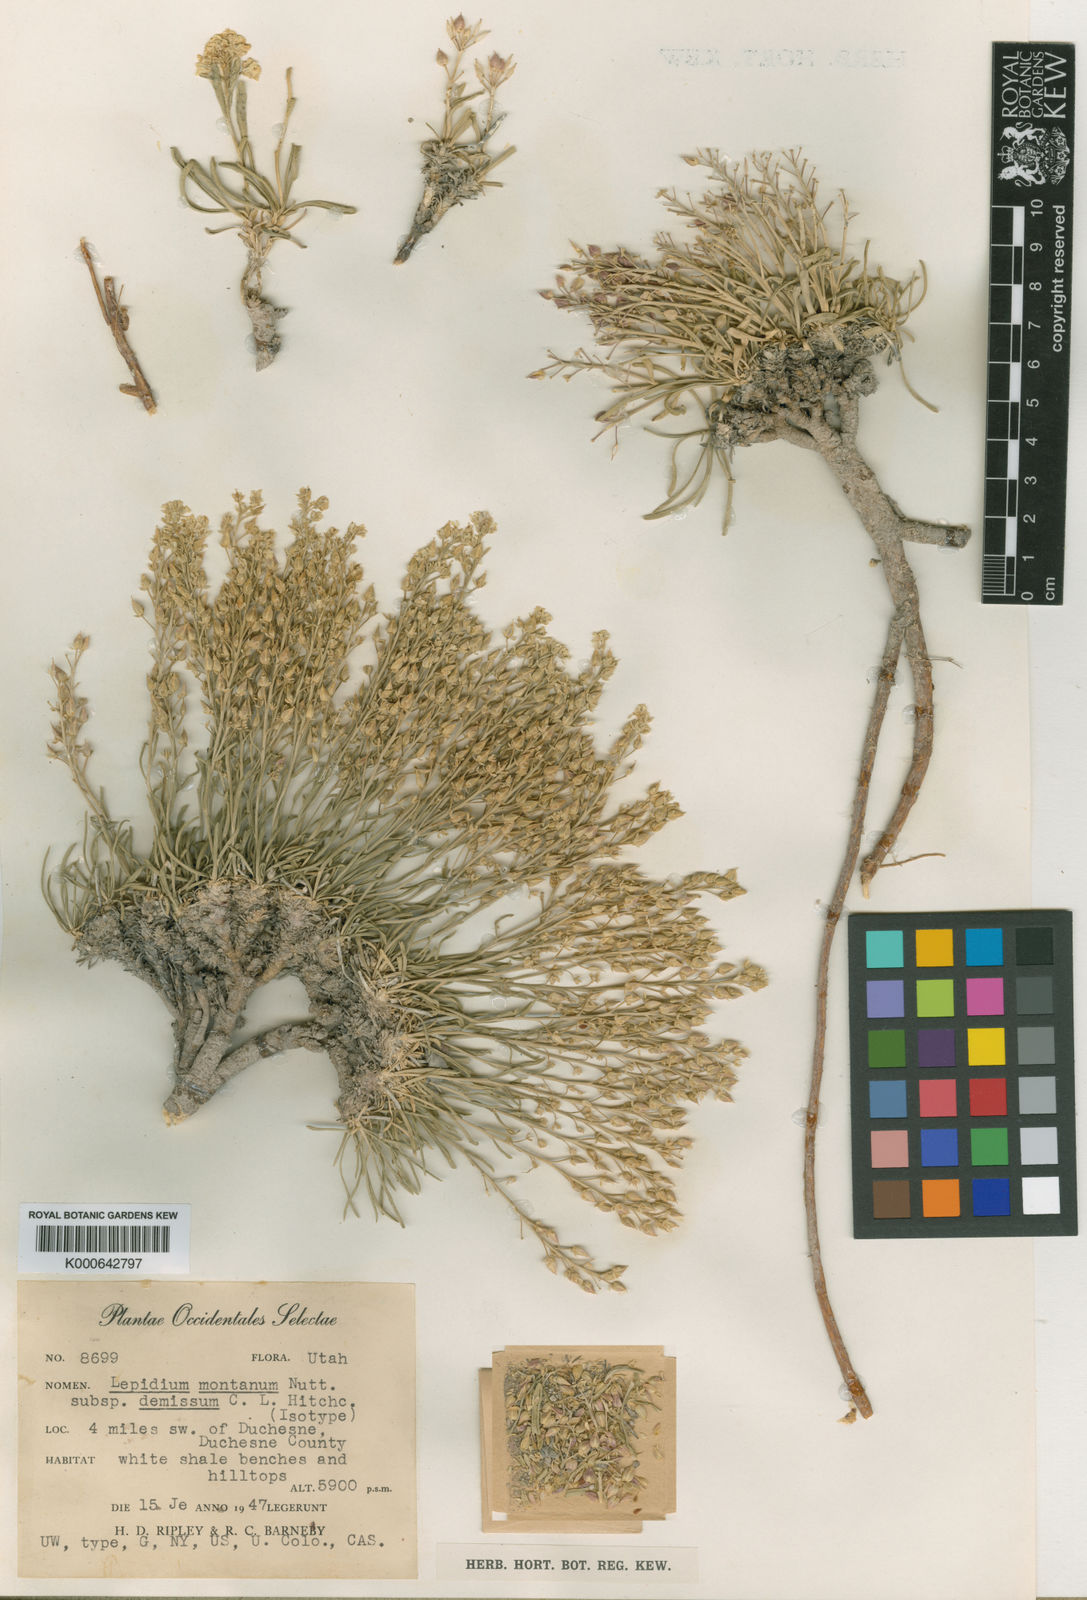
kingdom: Plantae
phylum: Tracheophyta
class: Magnoliopsida
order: Brassicales
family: Brassicaceae
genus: Lepidium
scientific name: Lepidium barnebyanum
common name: Barneby ridge cress
